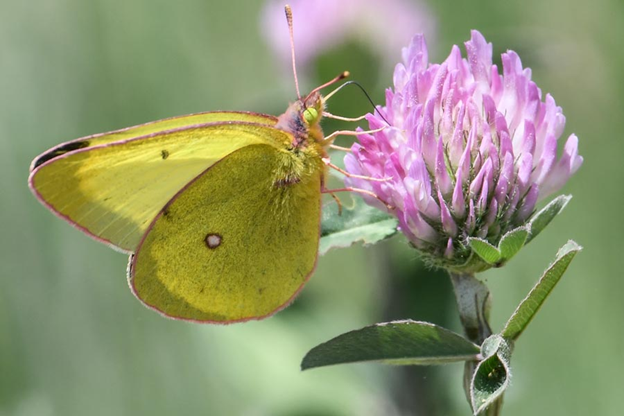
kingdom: Animalia
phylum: Arthropoda
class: Insecta
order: Lepidoptera
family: Pieridae
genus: Colias
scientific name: Colias occidentalis
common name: Western Sulphur
